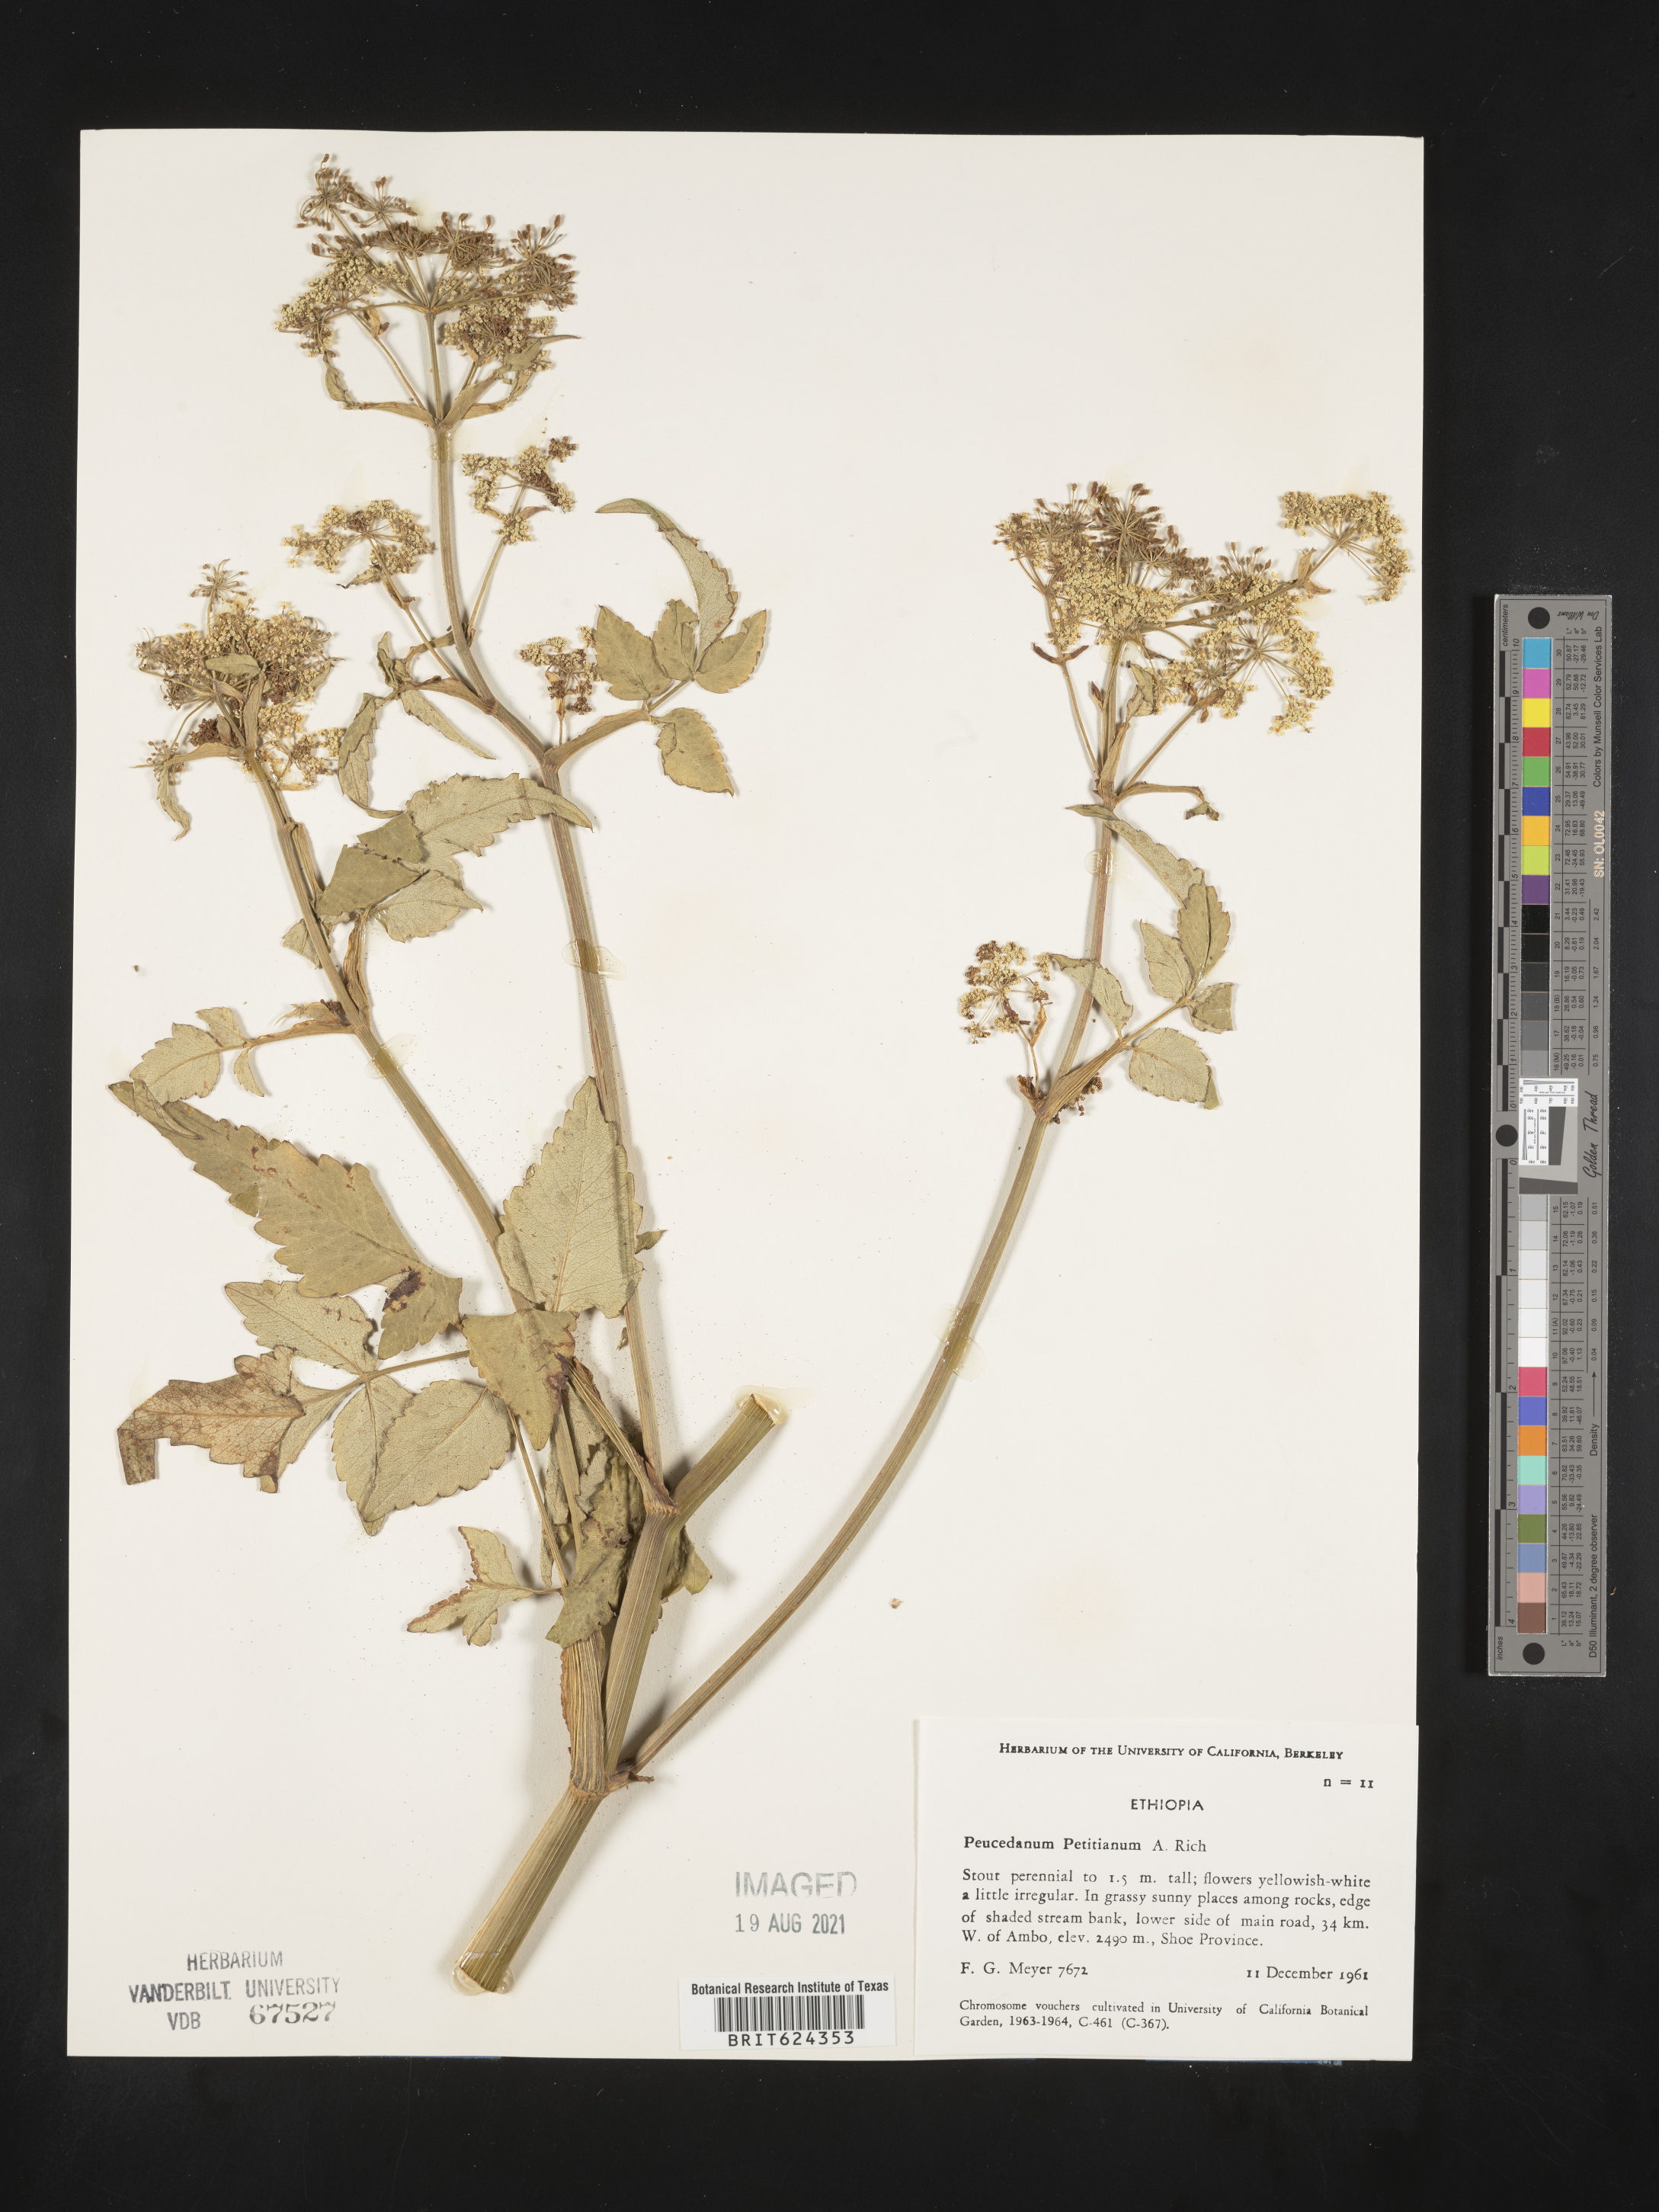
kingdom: Plantae
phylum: Tracheophyta
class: Magnoliopsida
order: Apiales
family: Apiaceae
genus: Afroligusticum
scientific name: Afroligusticum petitianum
